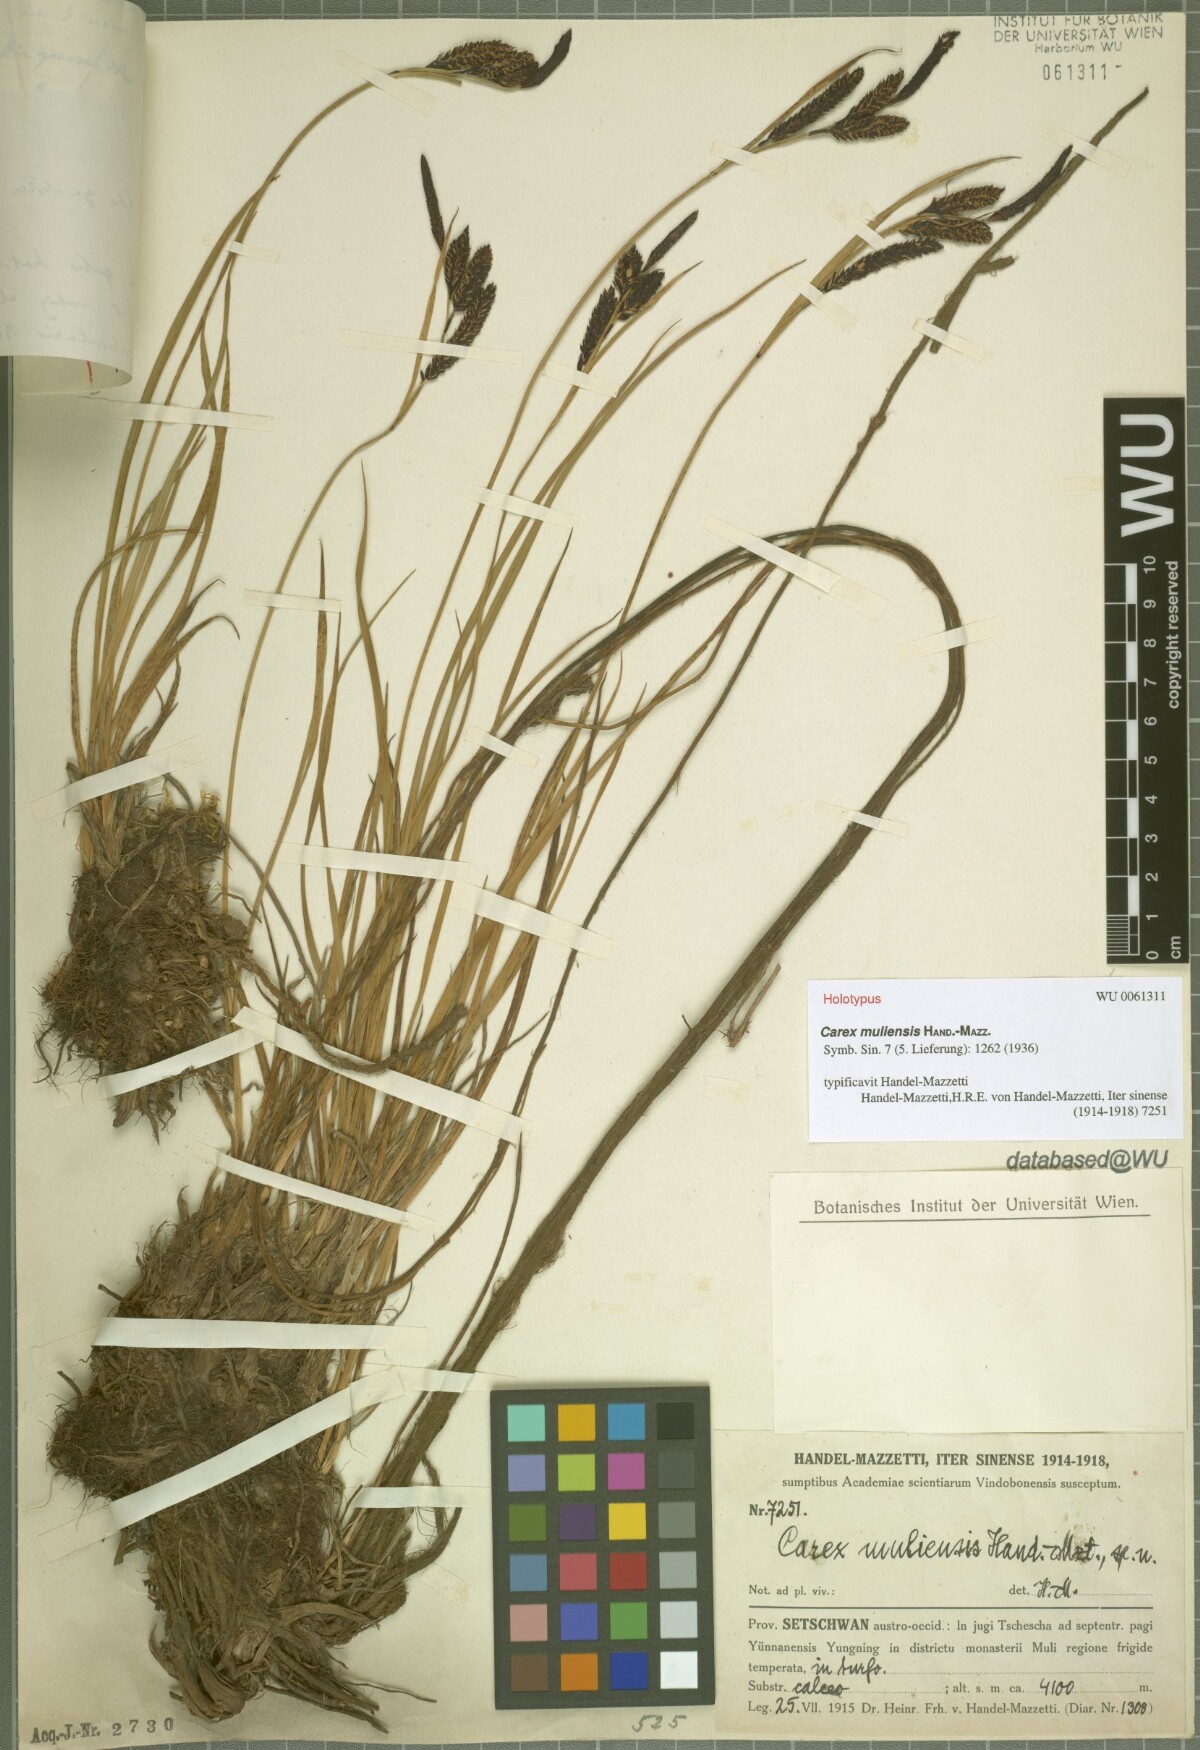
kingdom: Plantae
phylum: Tracheophyta
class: Liliopsida
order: Poales
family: Cyperaceae
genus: Carex
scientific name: Carex muliensis
